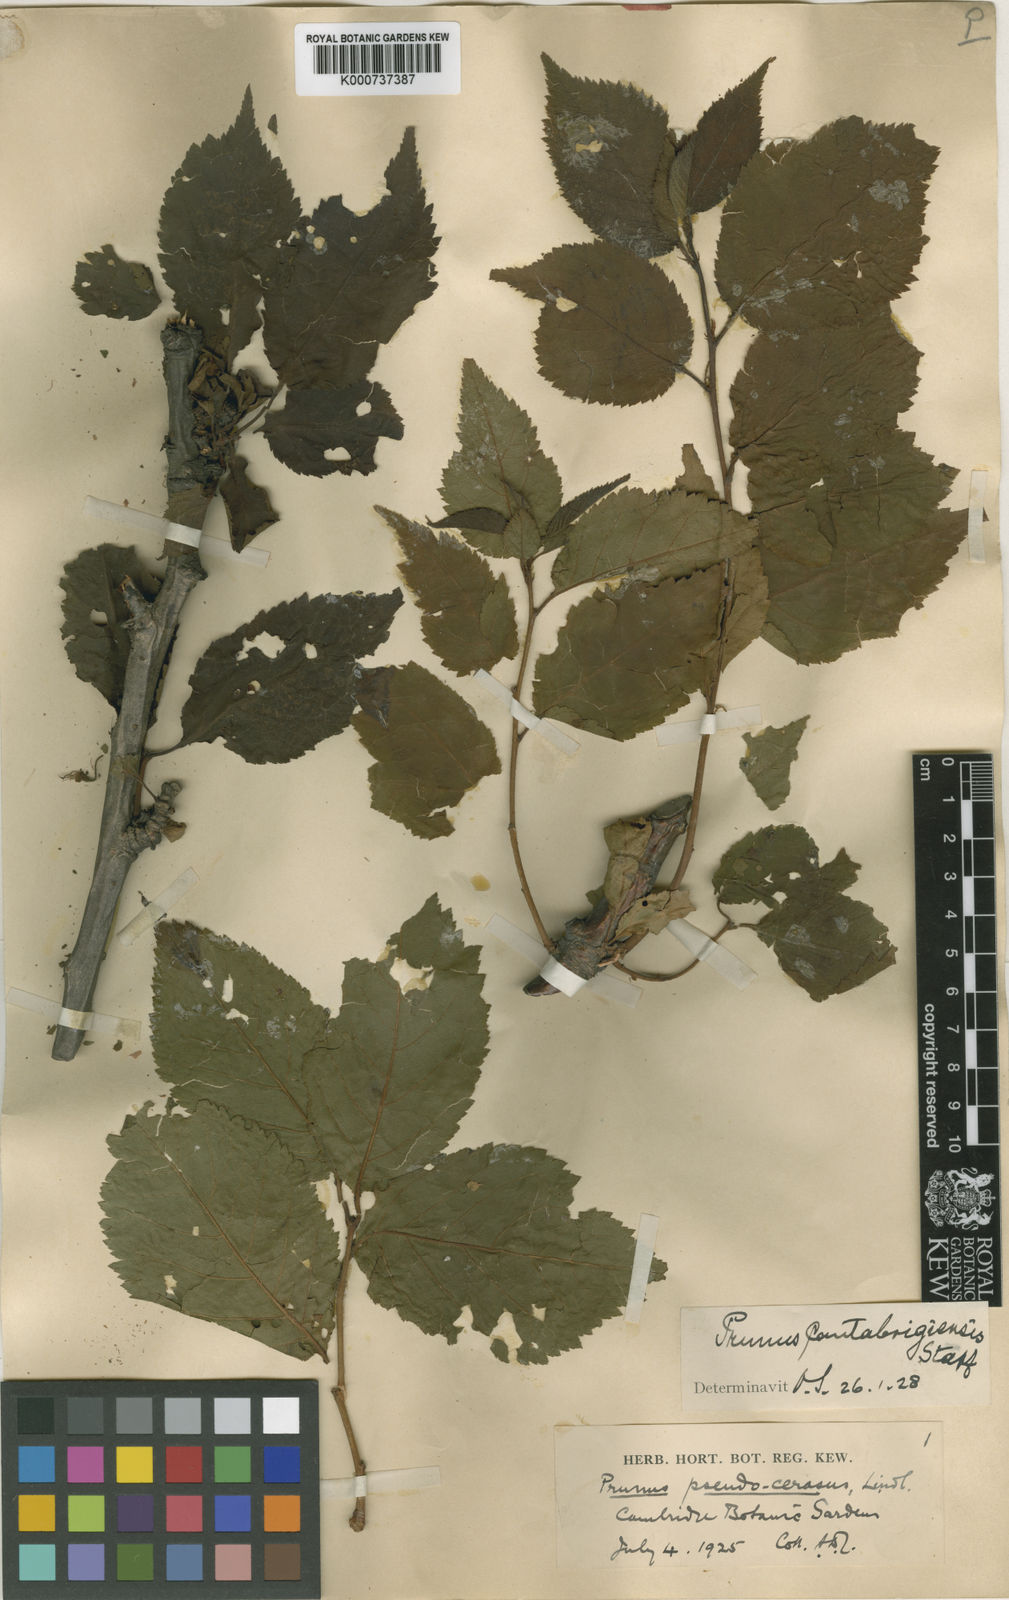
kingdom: Plantae
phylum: Tracheophyta
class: Magnoliopsida
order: Rosales
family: Rosaceae
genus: Prunus
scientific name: Prunus pseudocerasus
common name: Ying tao cherry
